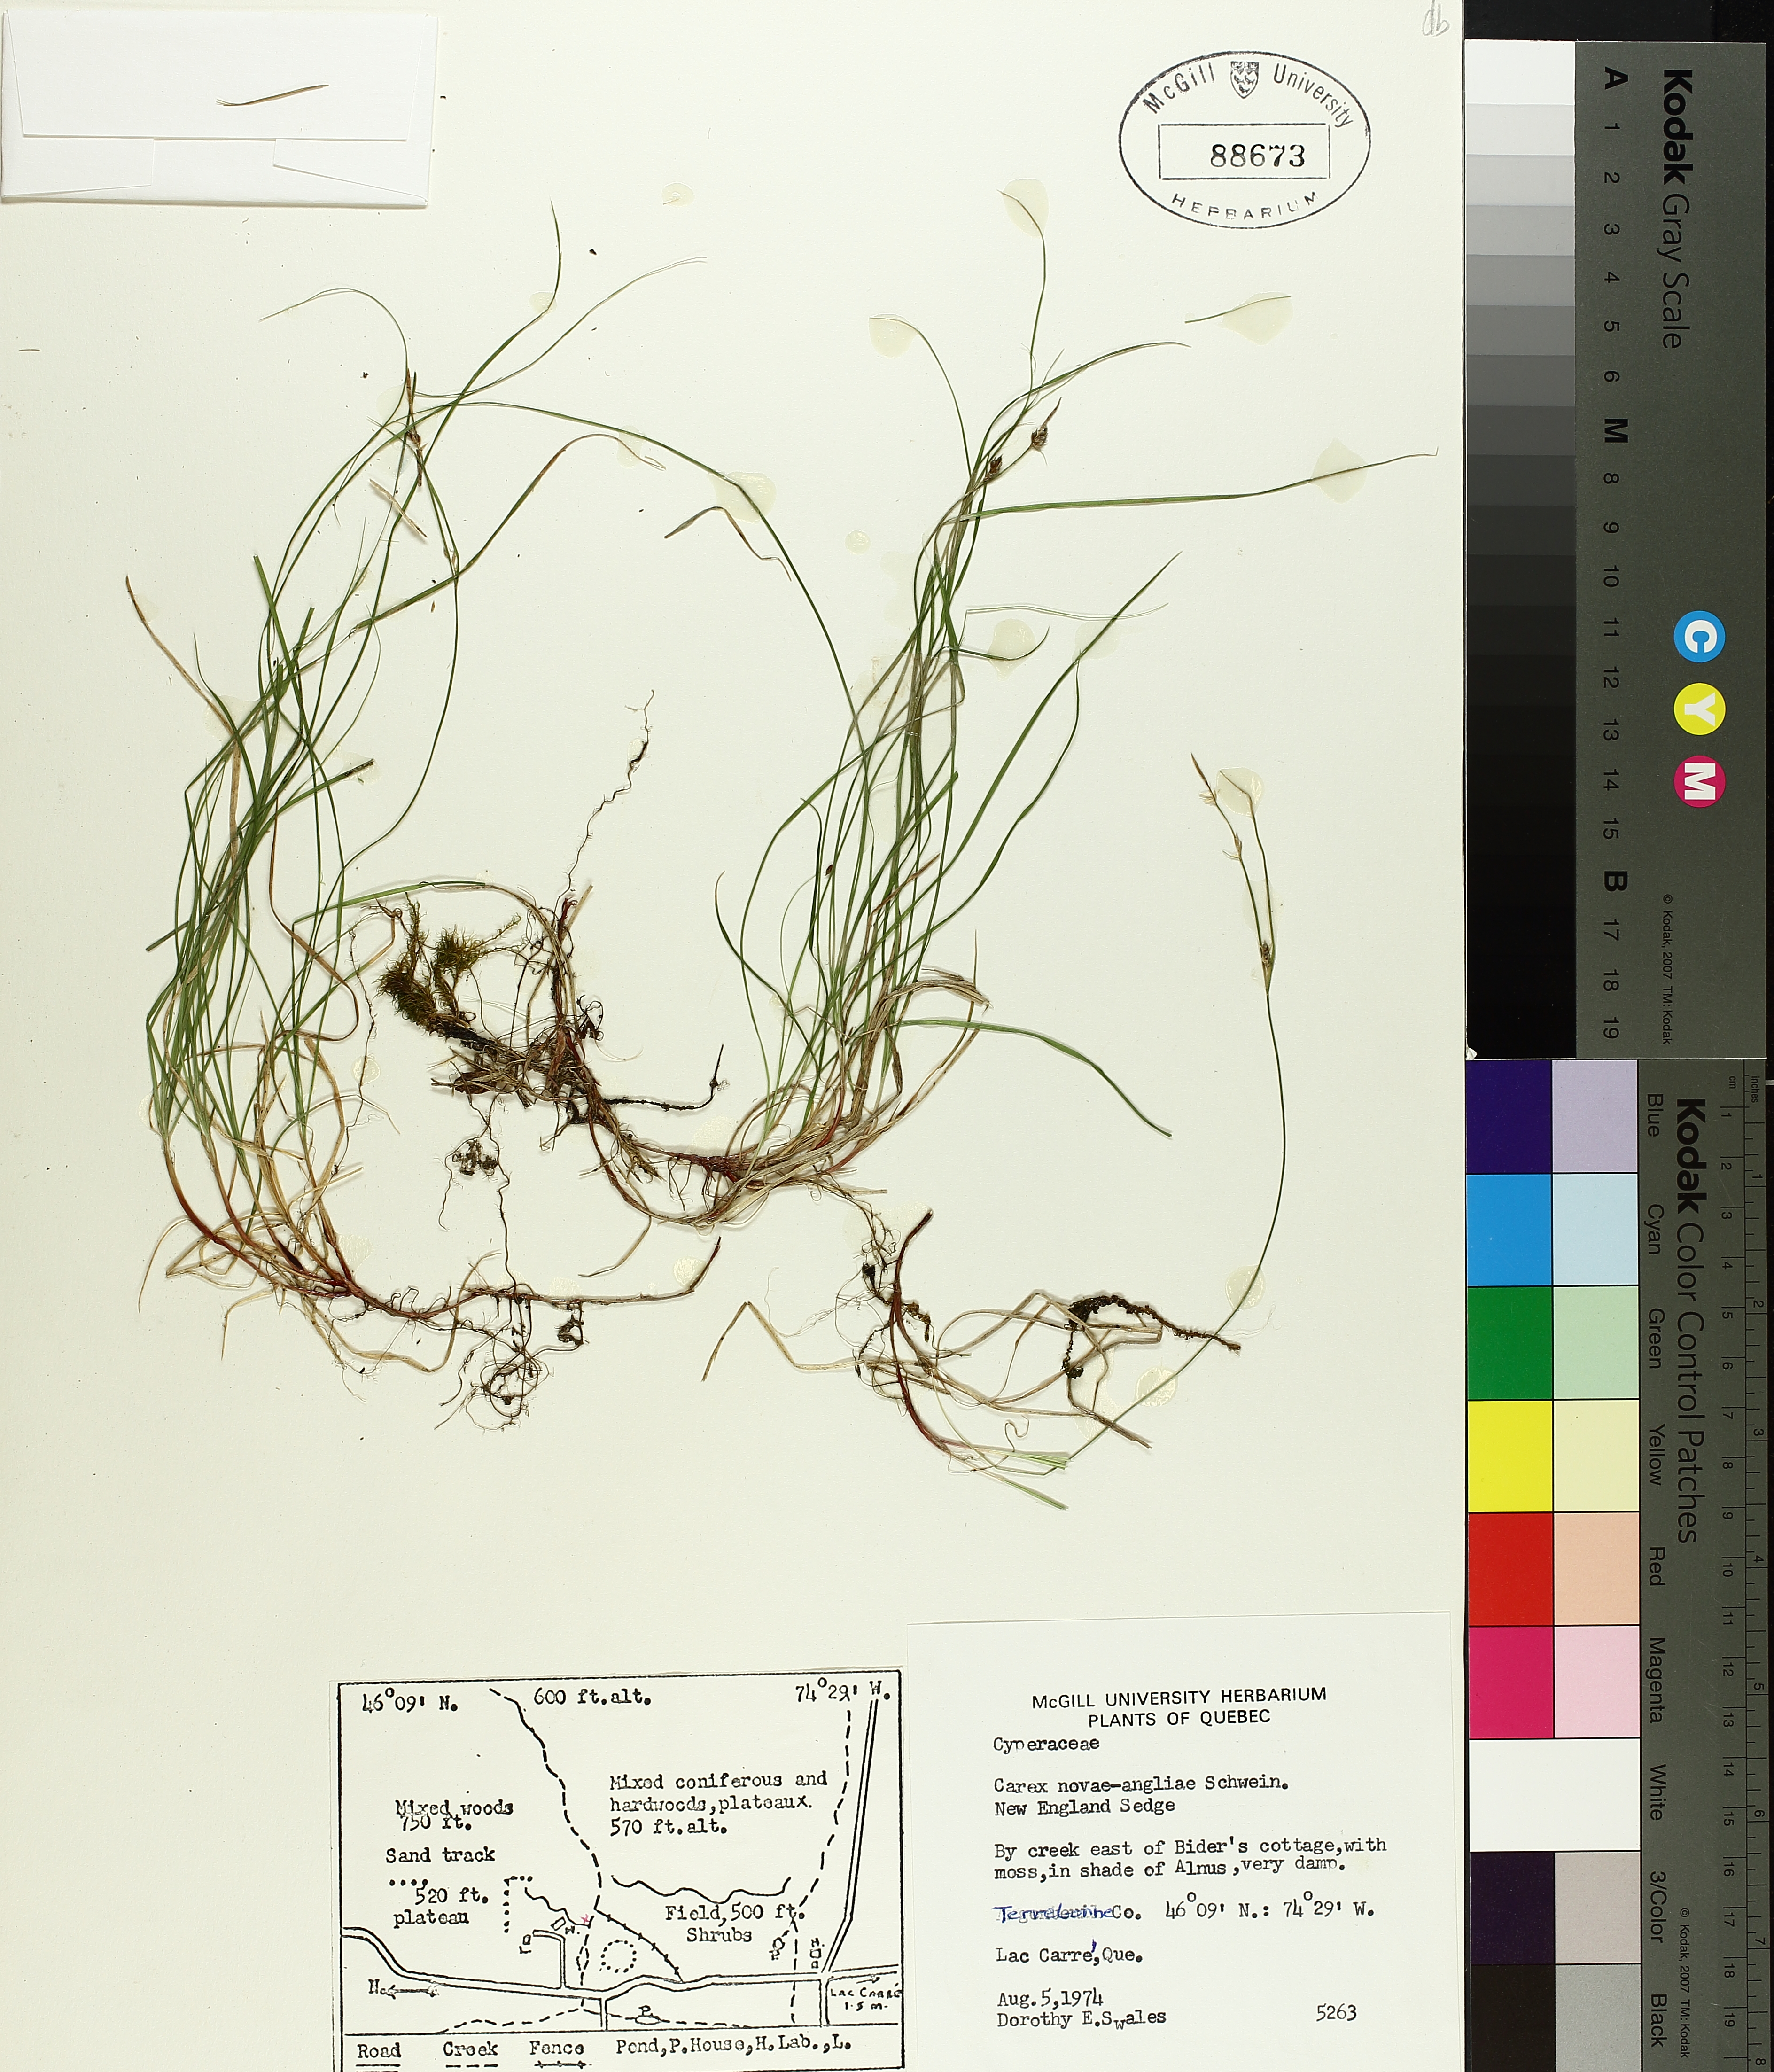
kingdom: Plantae
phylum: Tracheophyta
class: Liliopsida
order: Poales
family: Cyperaceae
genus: Carex
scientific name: Carex novae-angliae
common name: New england sedge
